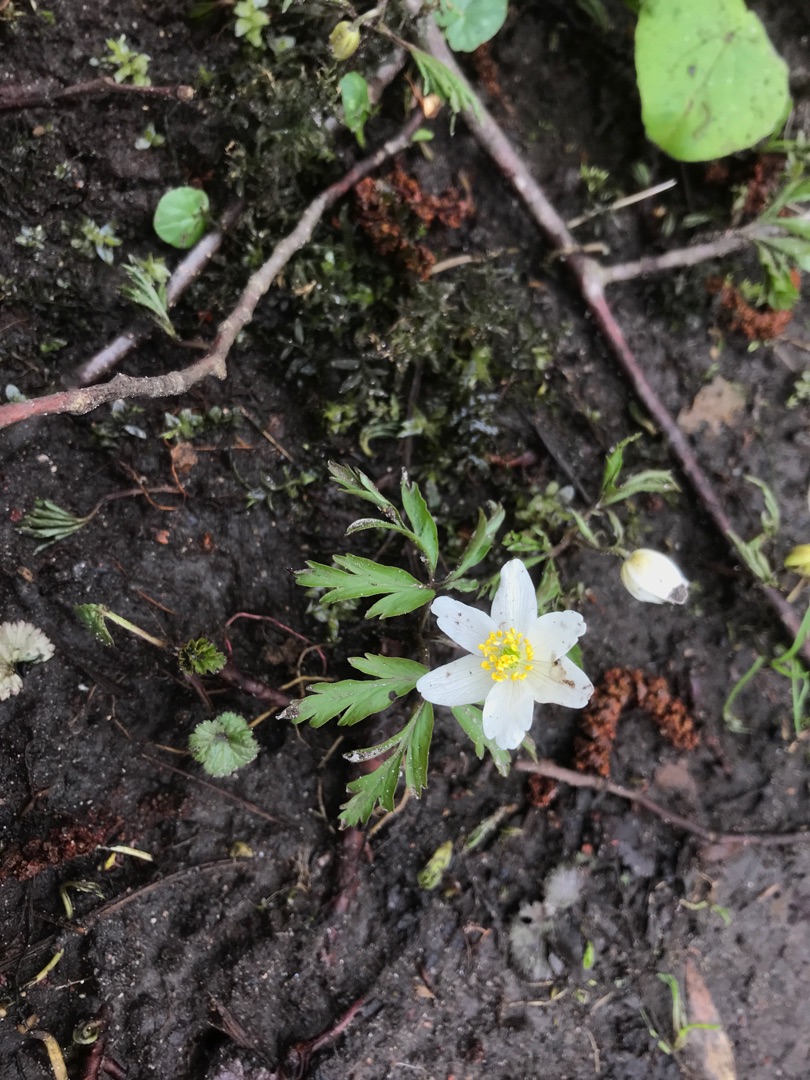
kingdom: Plantae
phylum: Tracheophyta
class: Magnoliopsida
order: Ranunculales
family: Ranunculaceae
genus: Anemone
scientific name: Anemone nemorosa
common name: Hvid anemone
